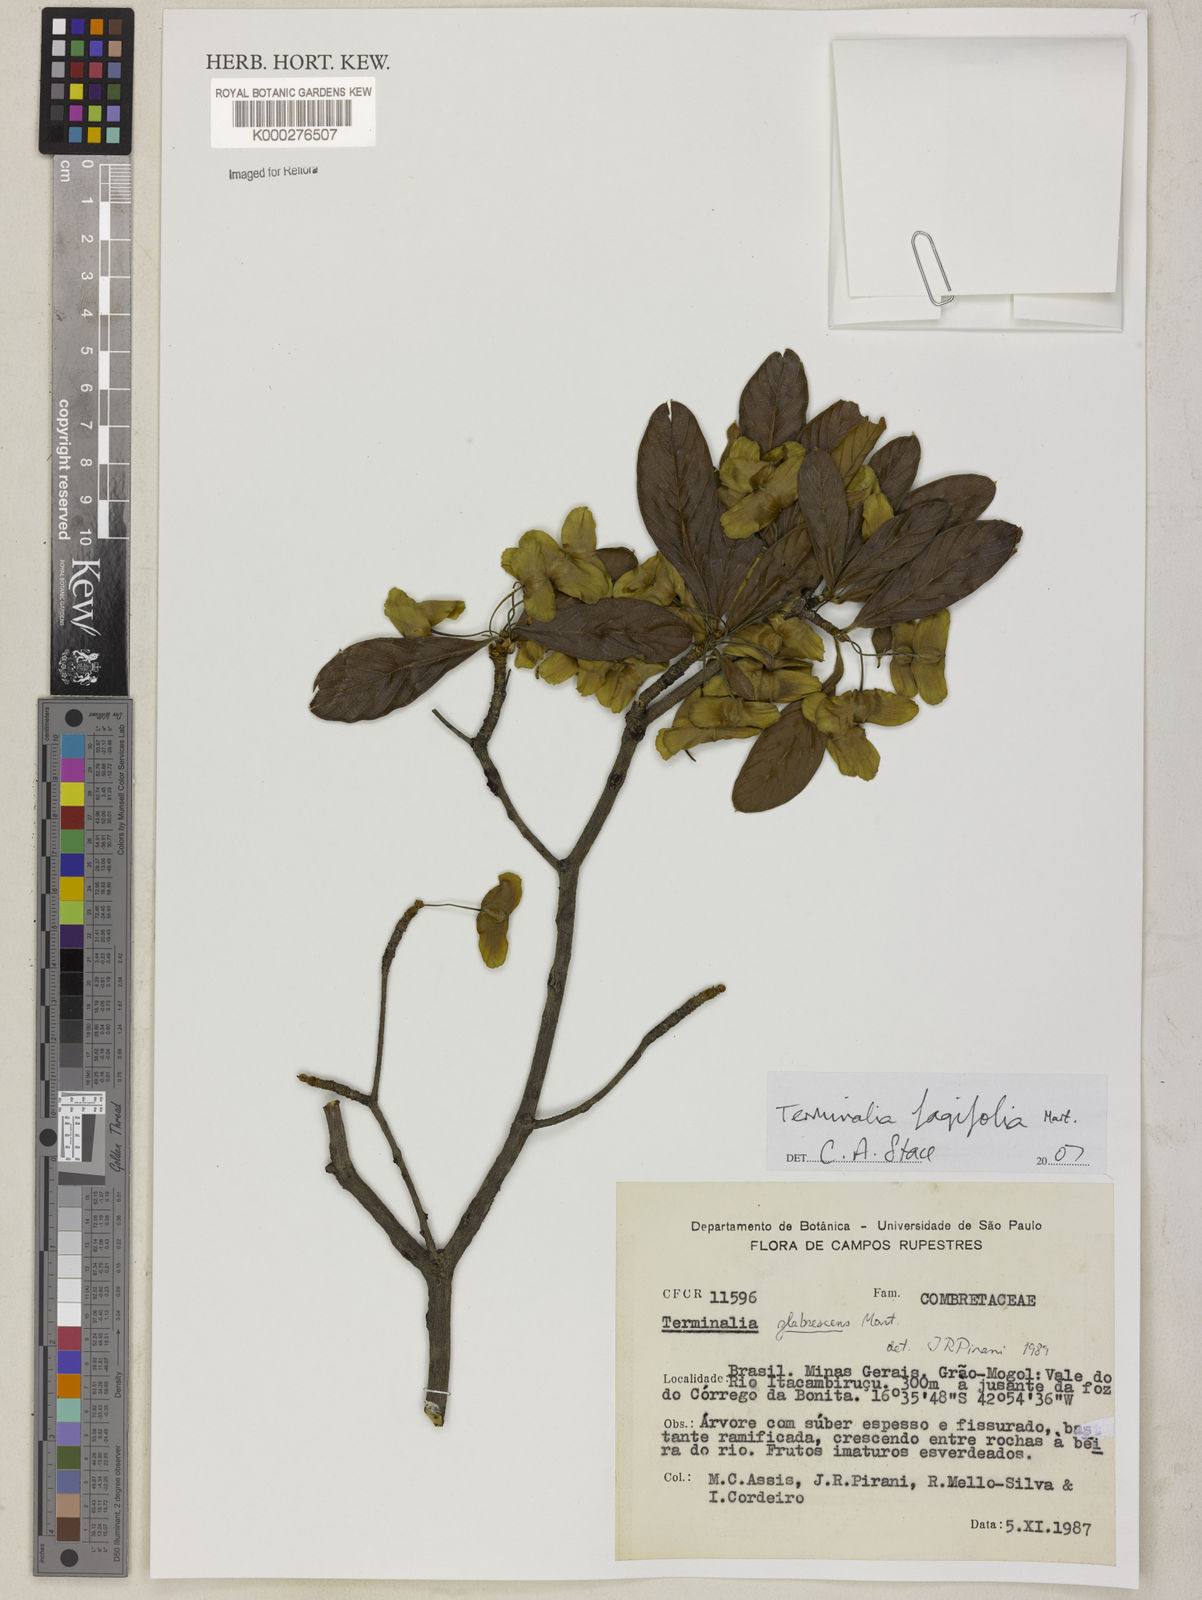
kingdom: Plantae
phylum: Tracheophyta
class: Magnoliopsida
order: Myrtales
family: Combretaceae
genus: Terminalia
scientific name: Terminalia fagifolia
